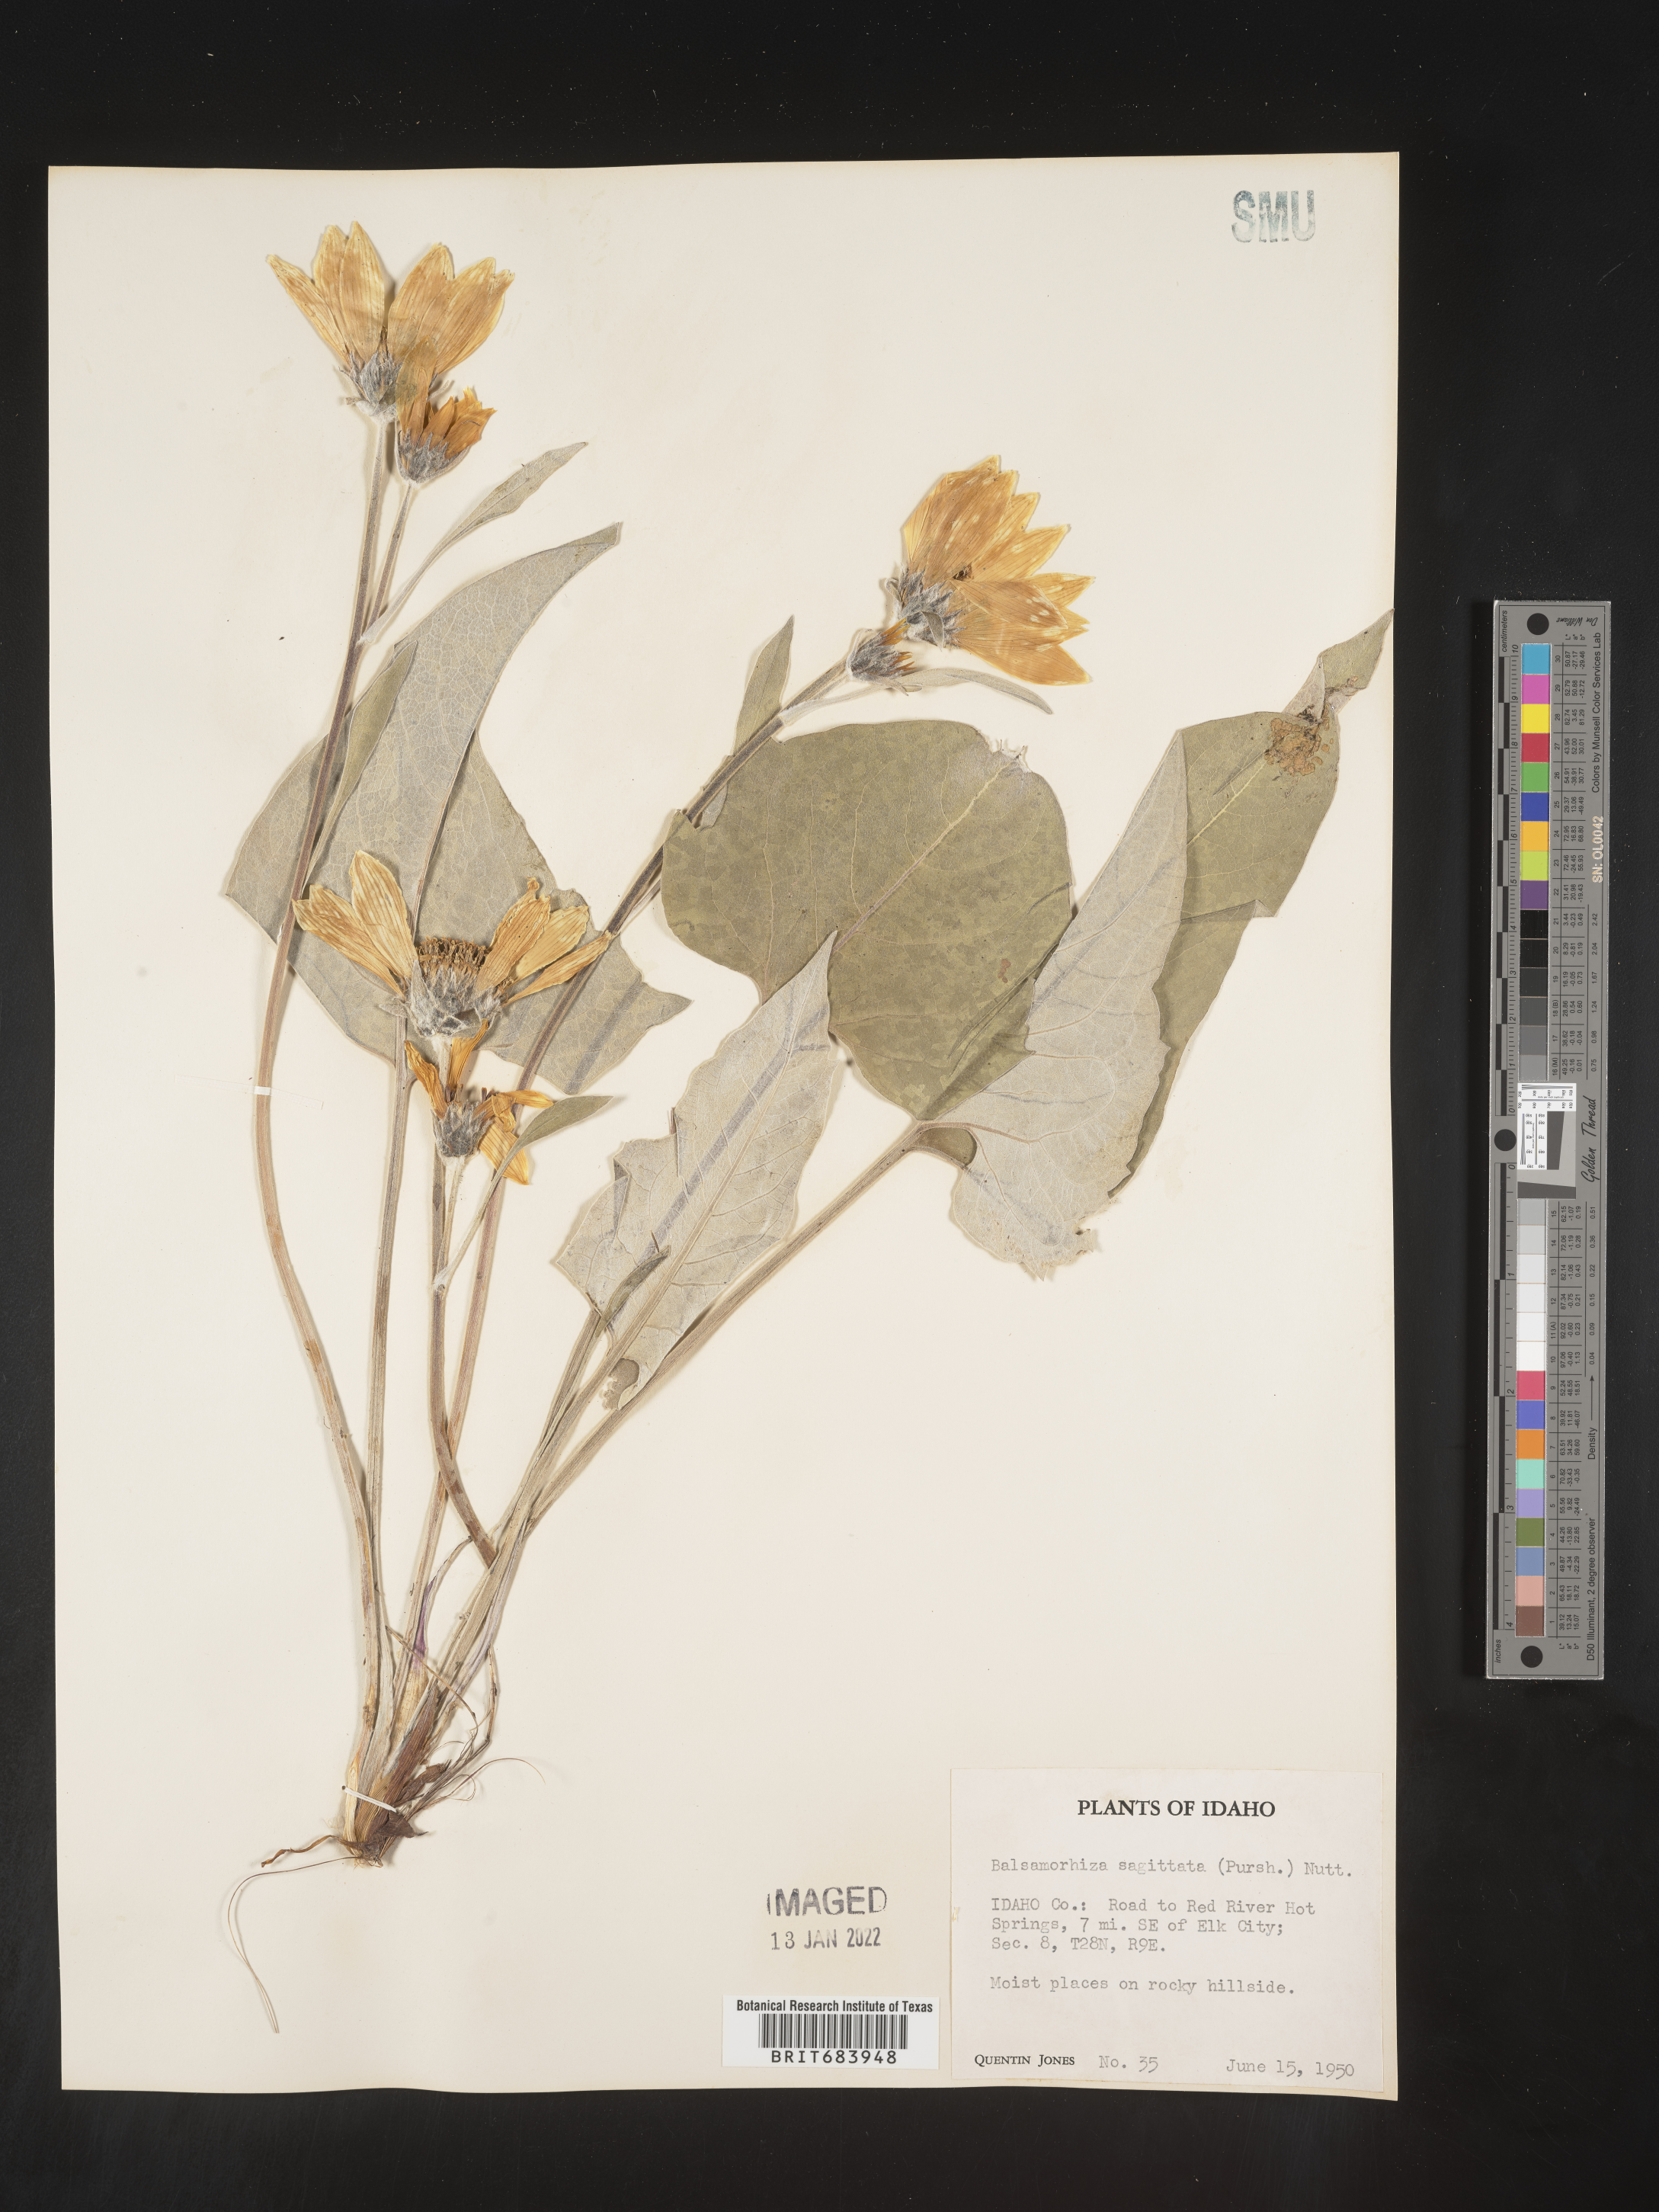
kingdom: Plantae
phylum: Tracheophyta
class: Magnoliopsida
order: Asterales
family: Asteraceae
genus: Wyethia
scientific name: Wyethia sagittata
